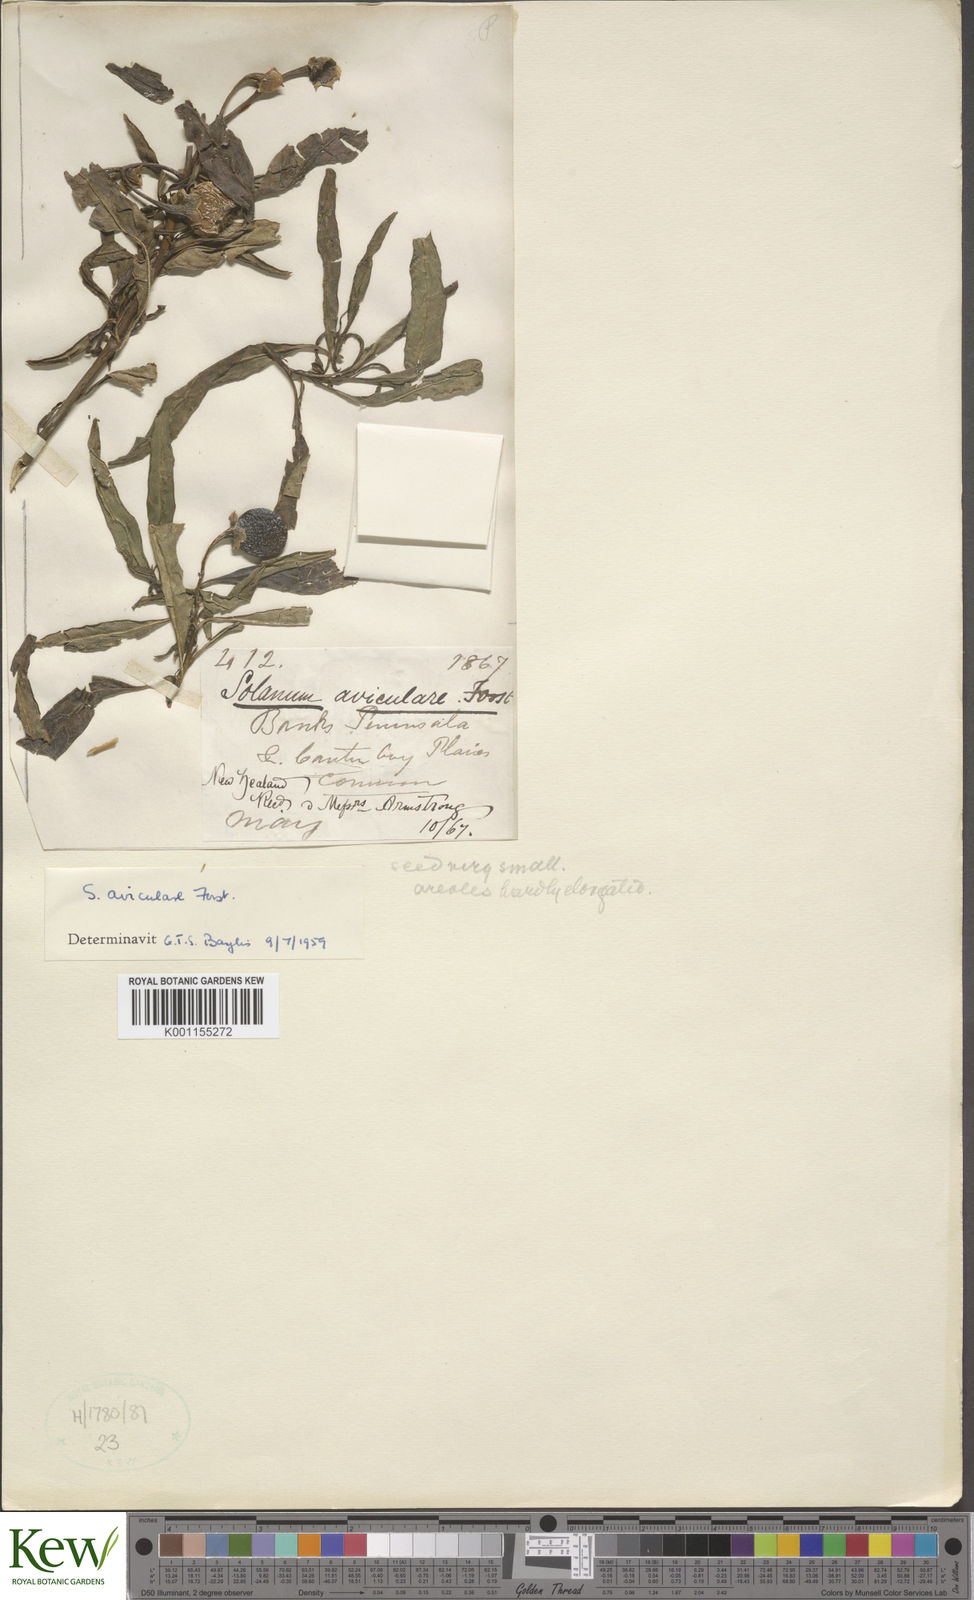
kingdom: Plantae
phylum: Tracheophyta
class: Magnoliopsida
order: Solanales
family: Solanaceae
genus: Solanum
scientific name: Solanum aviculare
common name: New zealand nightshade
